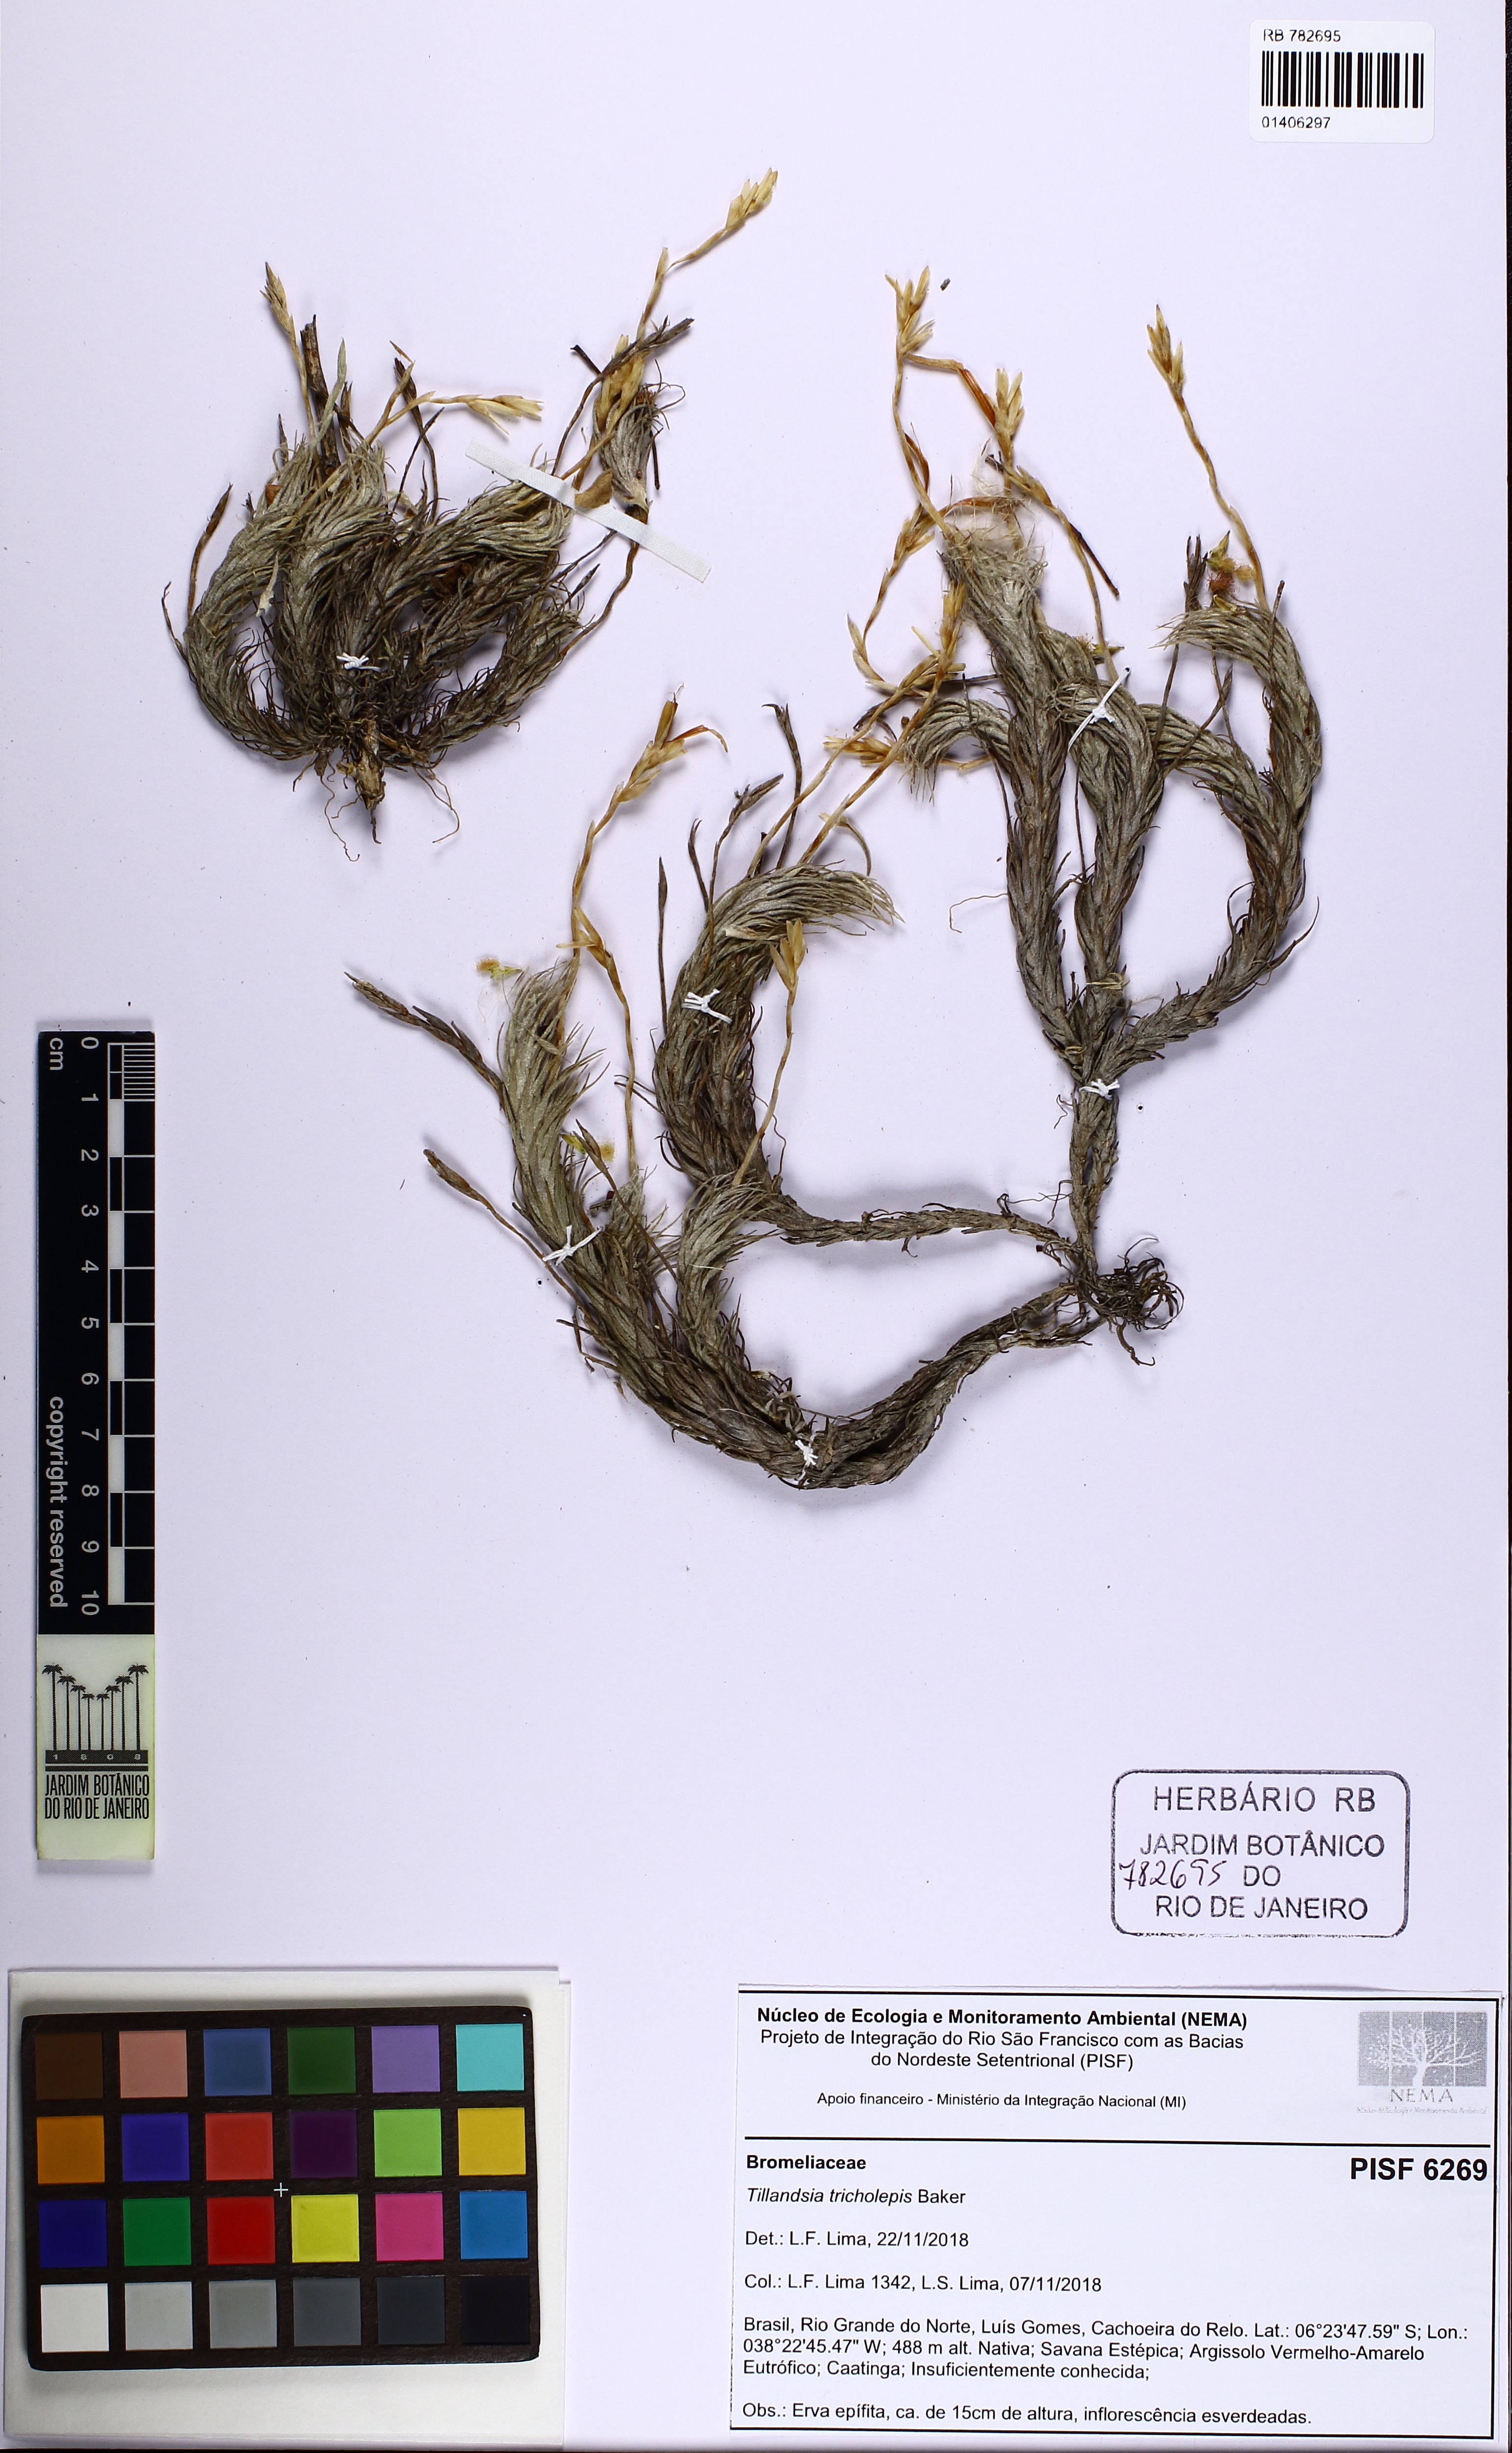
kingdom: Plantae
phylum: Tracheophyta
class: Liliopsida
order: Poales
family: Bromeliaceae
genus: Tillandsia
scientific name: Tillandsia tricholepis
